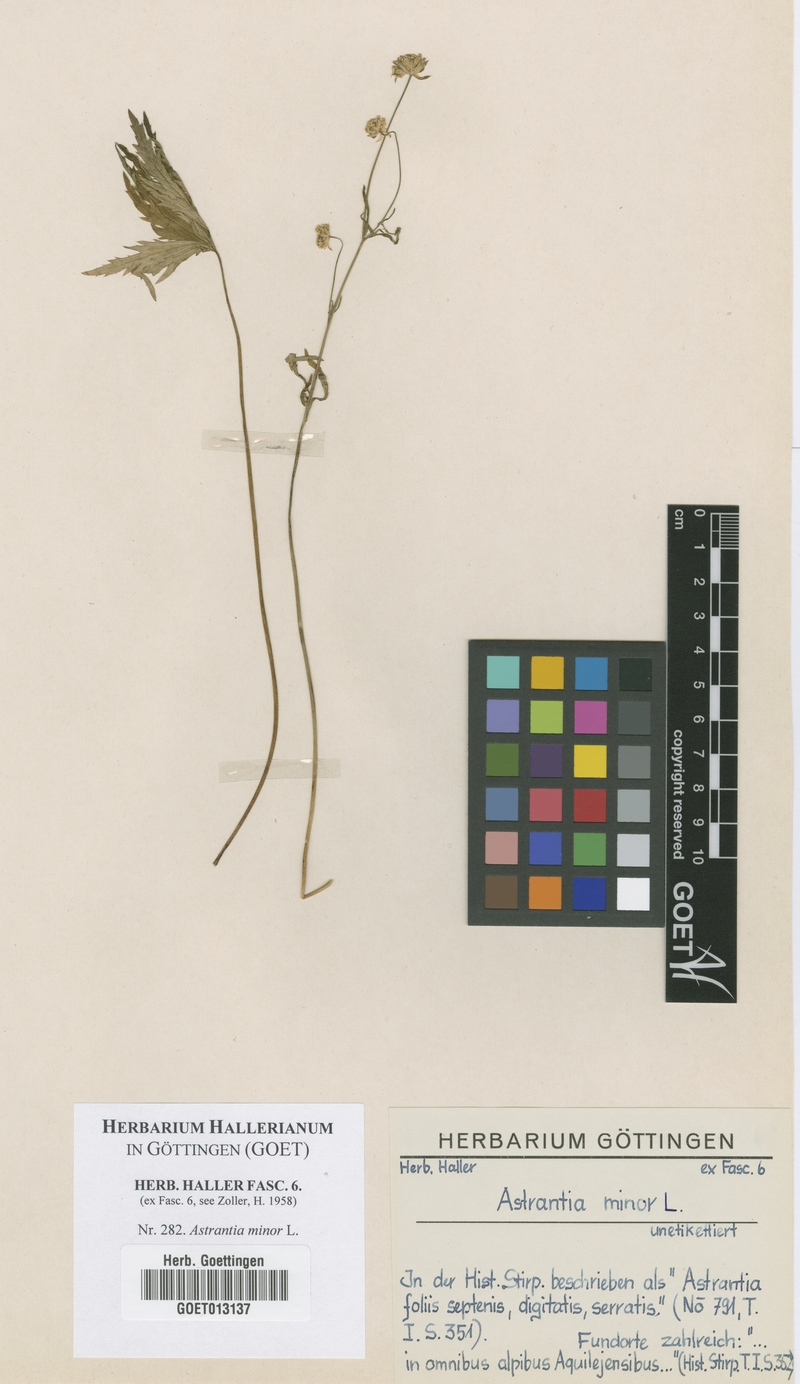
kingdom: Plantae
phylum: Tracheophyta
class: Magnoliopsida
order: Apiales
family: Apiaceae
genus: Astrantia
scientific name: Astrantia minor
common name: Lesser masterwort
